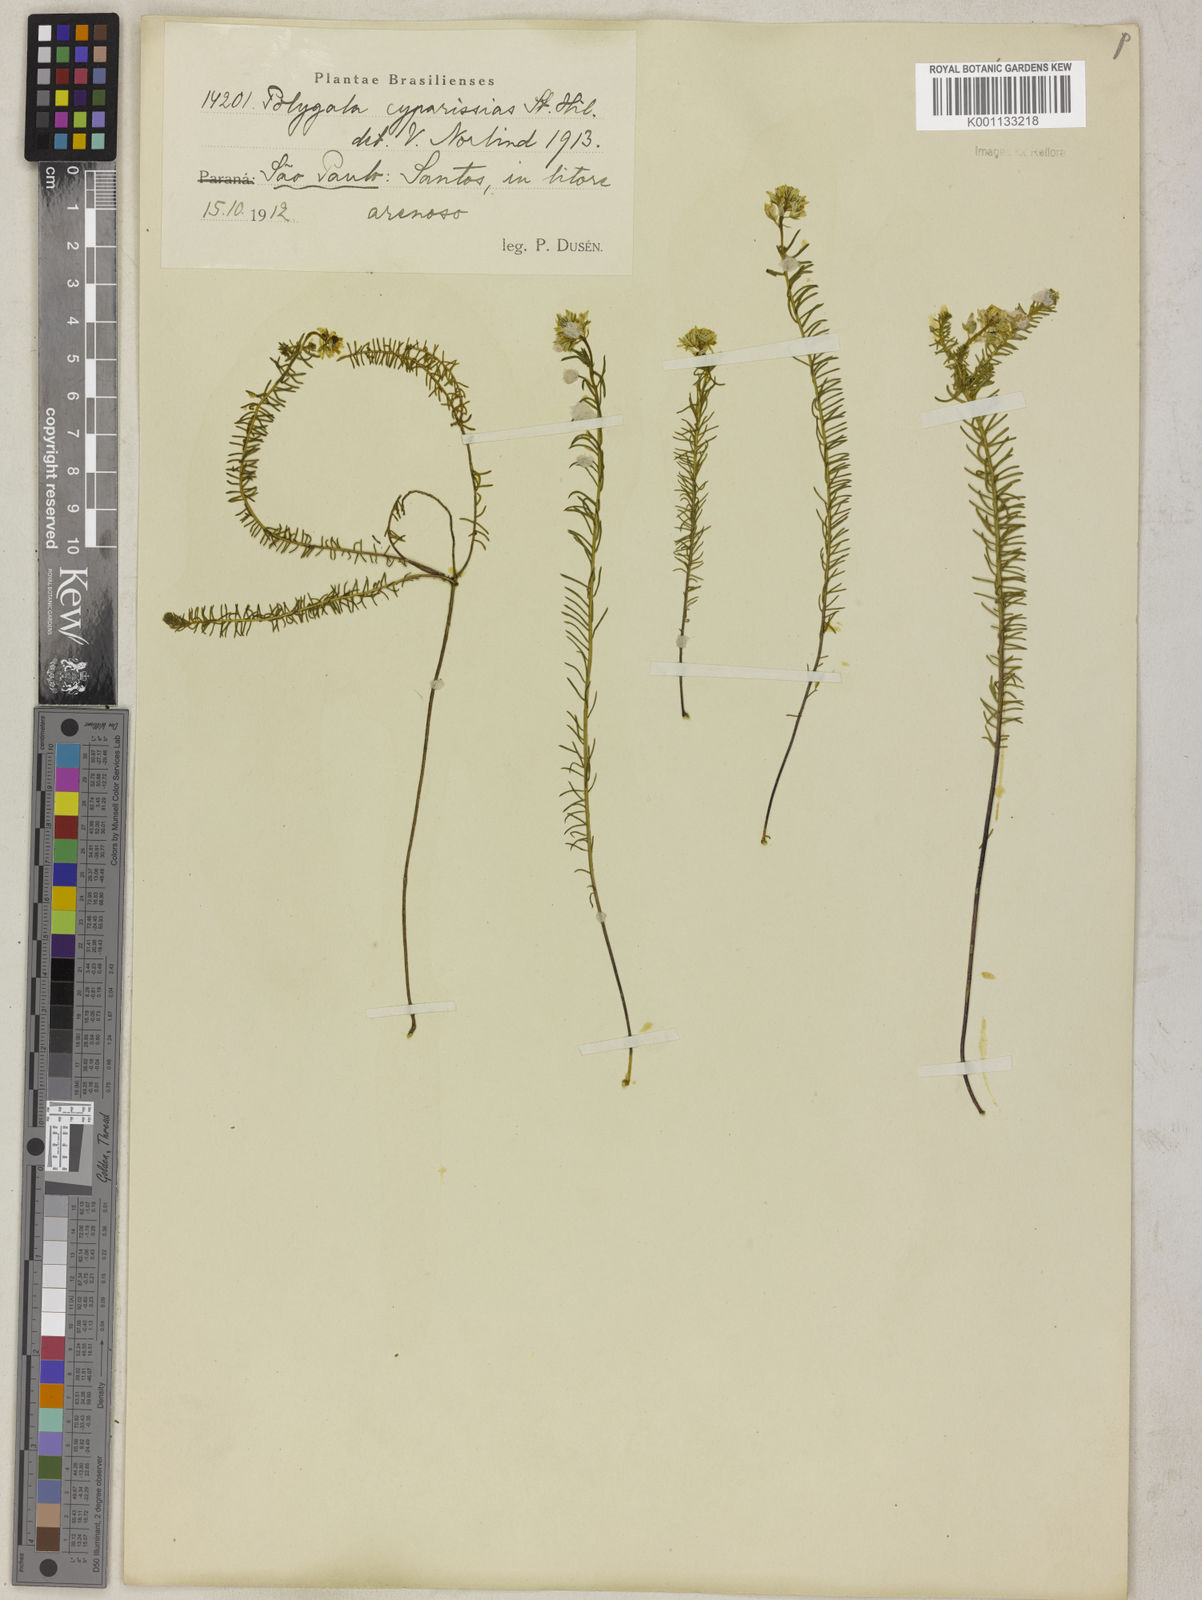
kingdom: Plantae
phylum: Tracheophyta
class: Magnoliopsida
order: Fabales
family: Polygalaceae
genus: Polygala
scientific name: Polygala cyparissias
